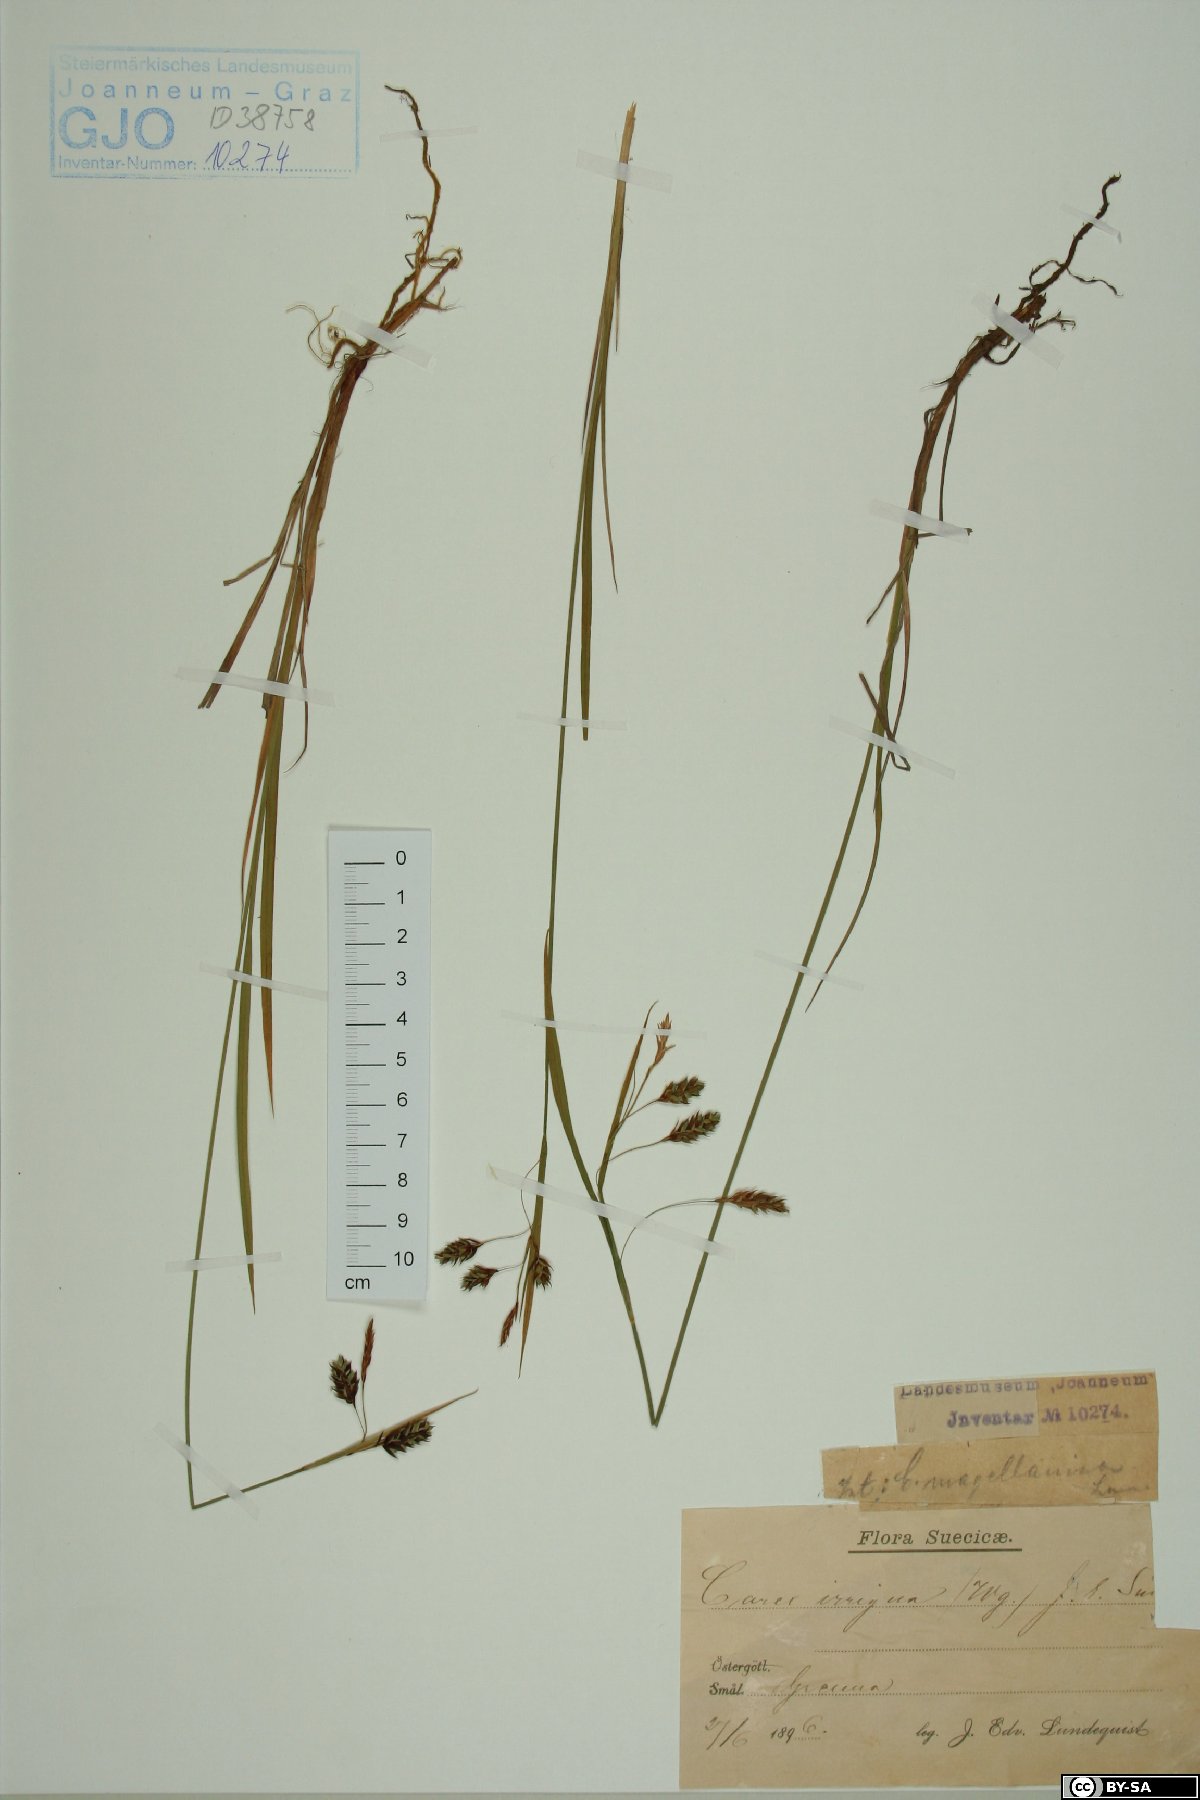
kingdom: Plantae
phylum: Tracheophyta
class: Liliopsida
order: Poales
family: Cyperaceae
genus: Carex
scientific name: Carex magellanica
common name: Bog sedge
